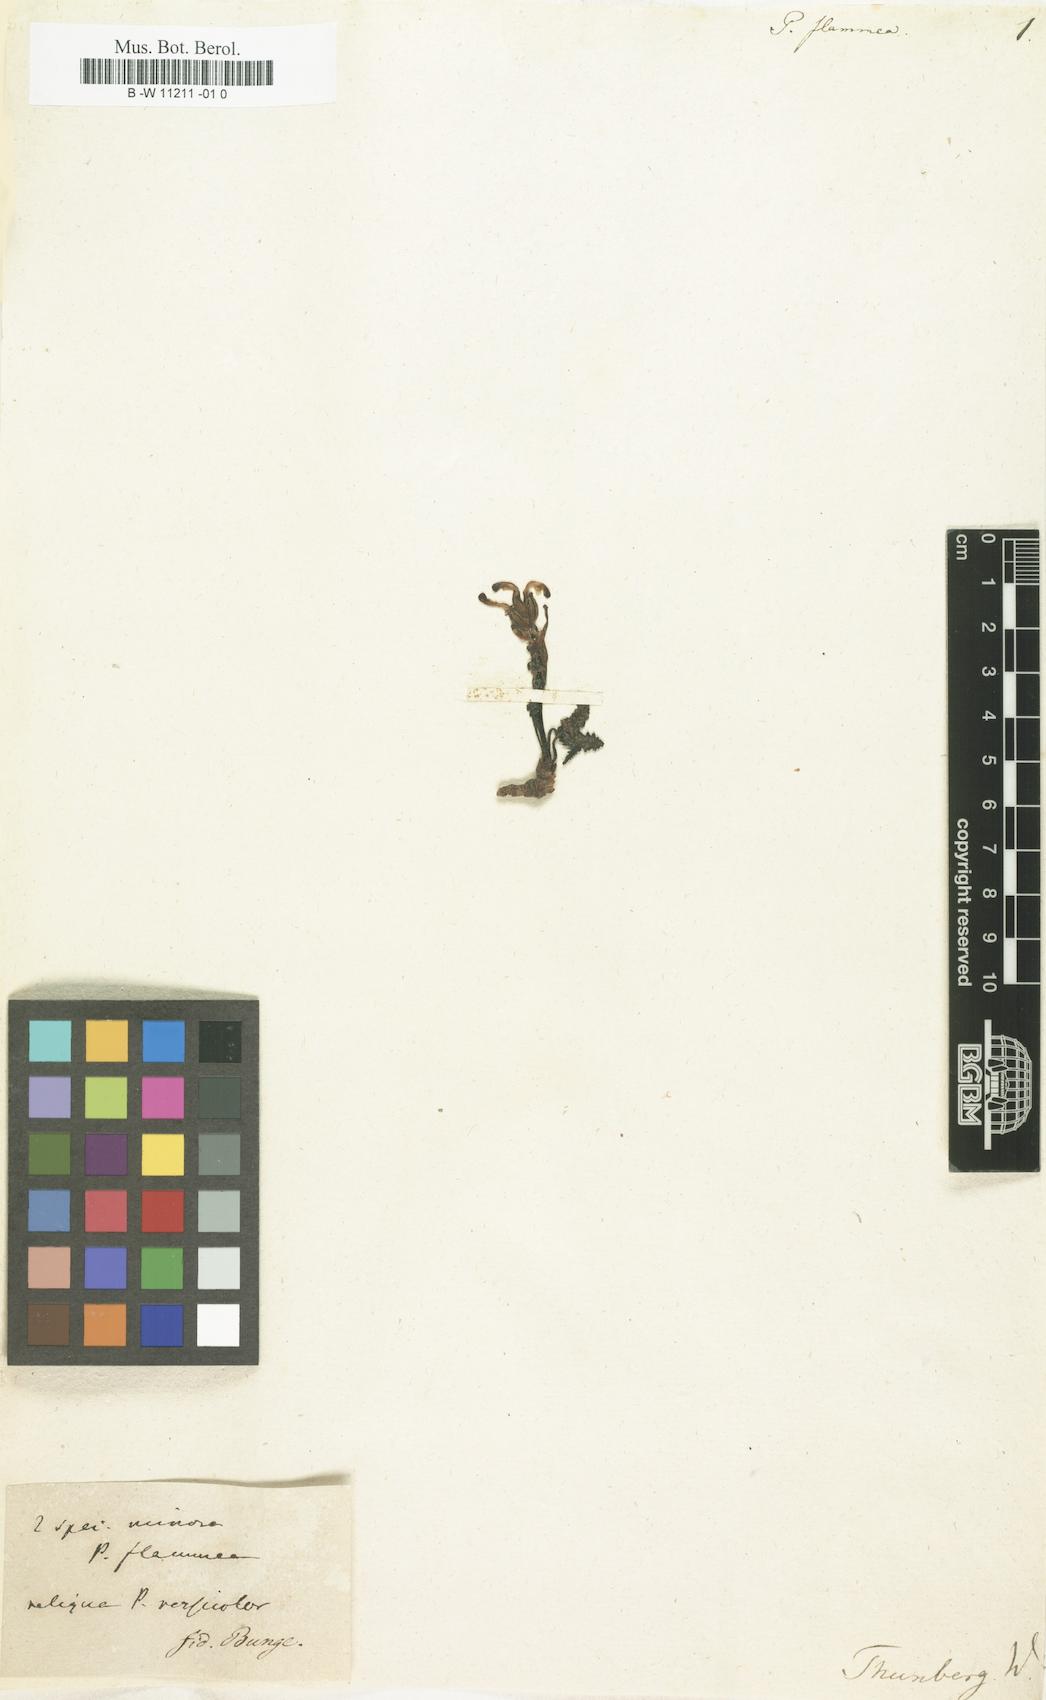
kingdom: Plantae
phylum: Tracheophyta
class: Magnoliopsida
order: Lamiales
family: Orobanchaceae
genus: Pedicularis
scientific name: Pedicularis flammea
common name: Flame-coloured lousewort
